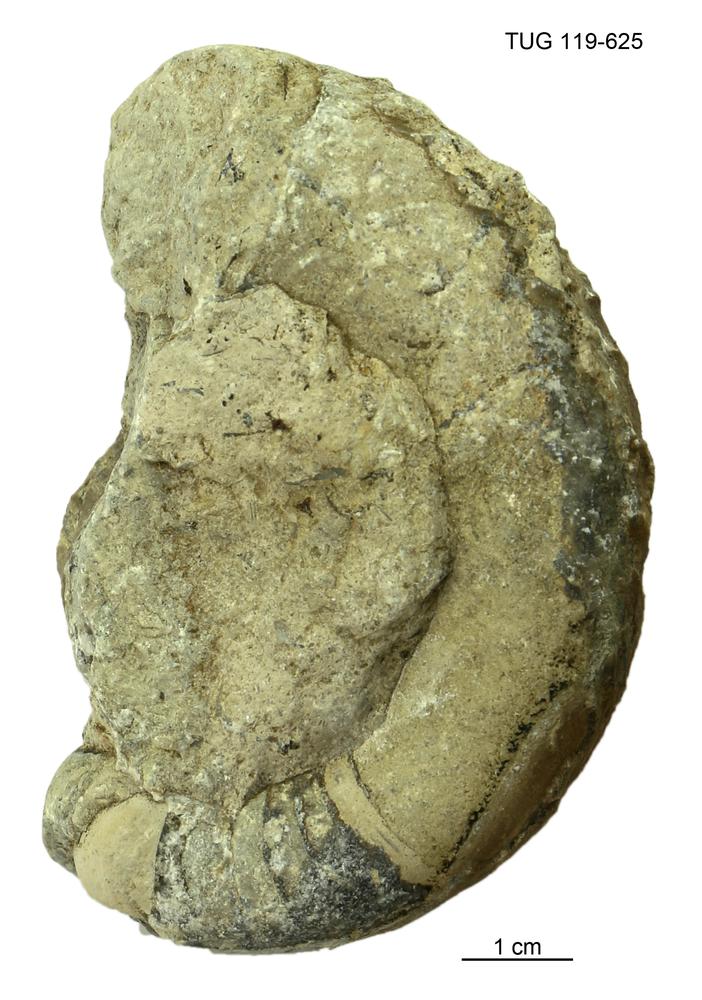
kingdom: Animalia
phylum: Mollusca
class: Cephalopoda
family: Trocholitidae
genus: Schroederoceras
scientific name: Schroederoceras
